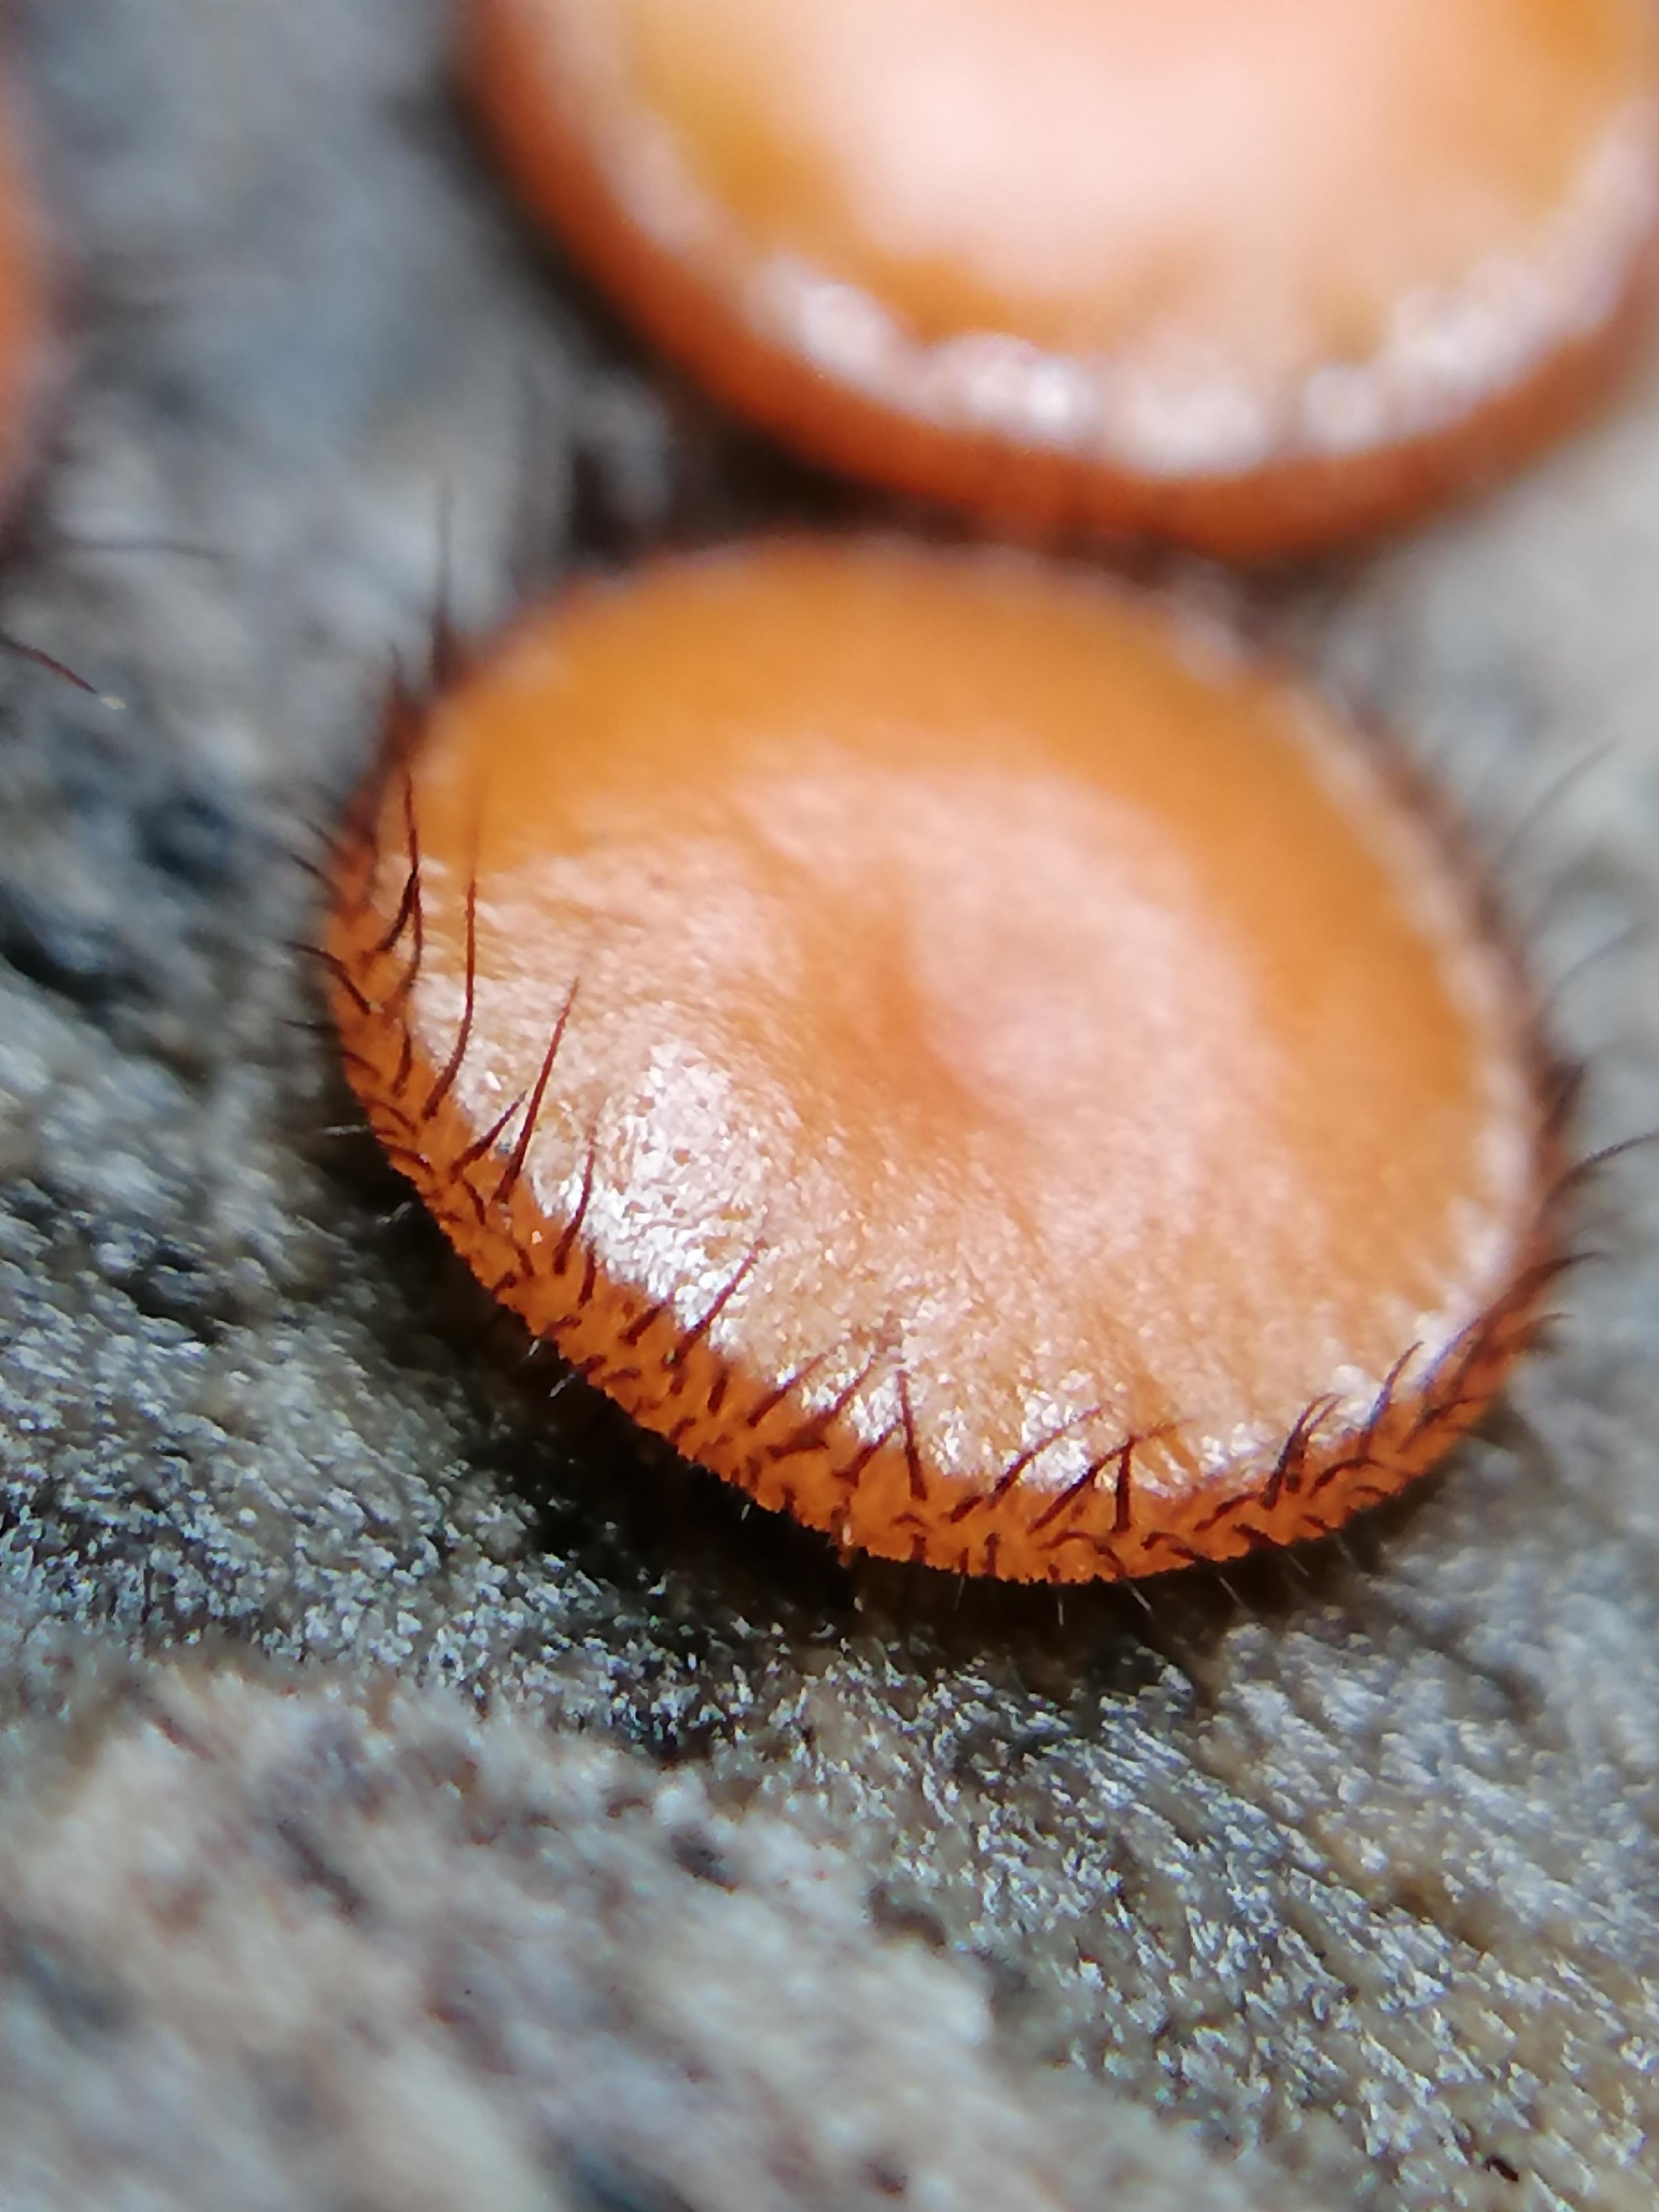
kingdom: Fungi
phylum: Ascomycota
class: Pezizomycetes
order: Pezizales
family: Pyronemataceae
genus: Scutellinia
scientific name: Scutellinia scutellata
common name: frynset skjoldbæger
